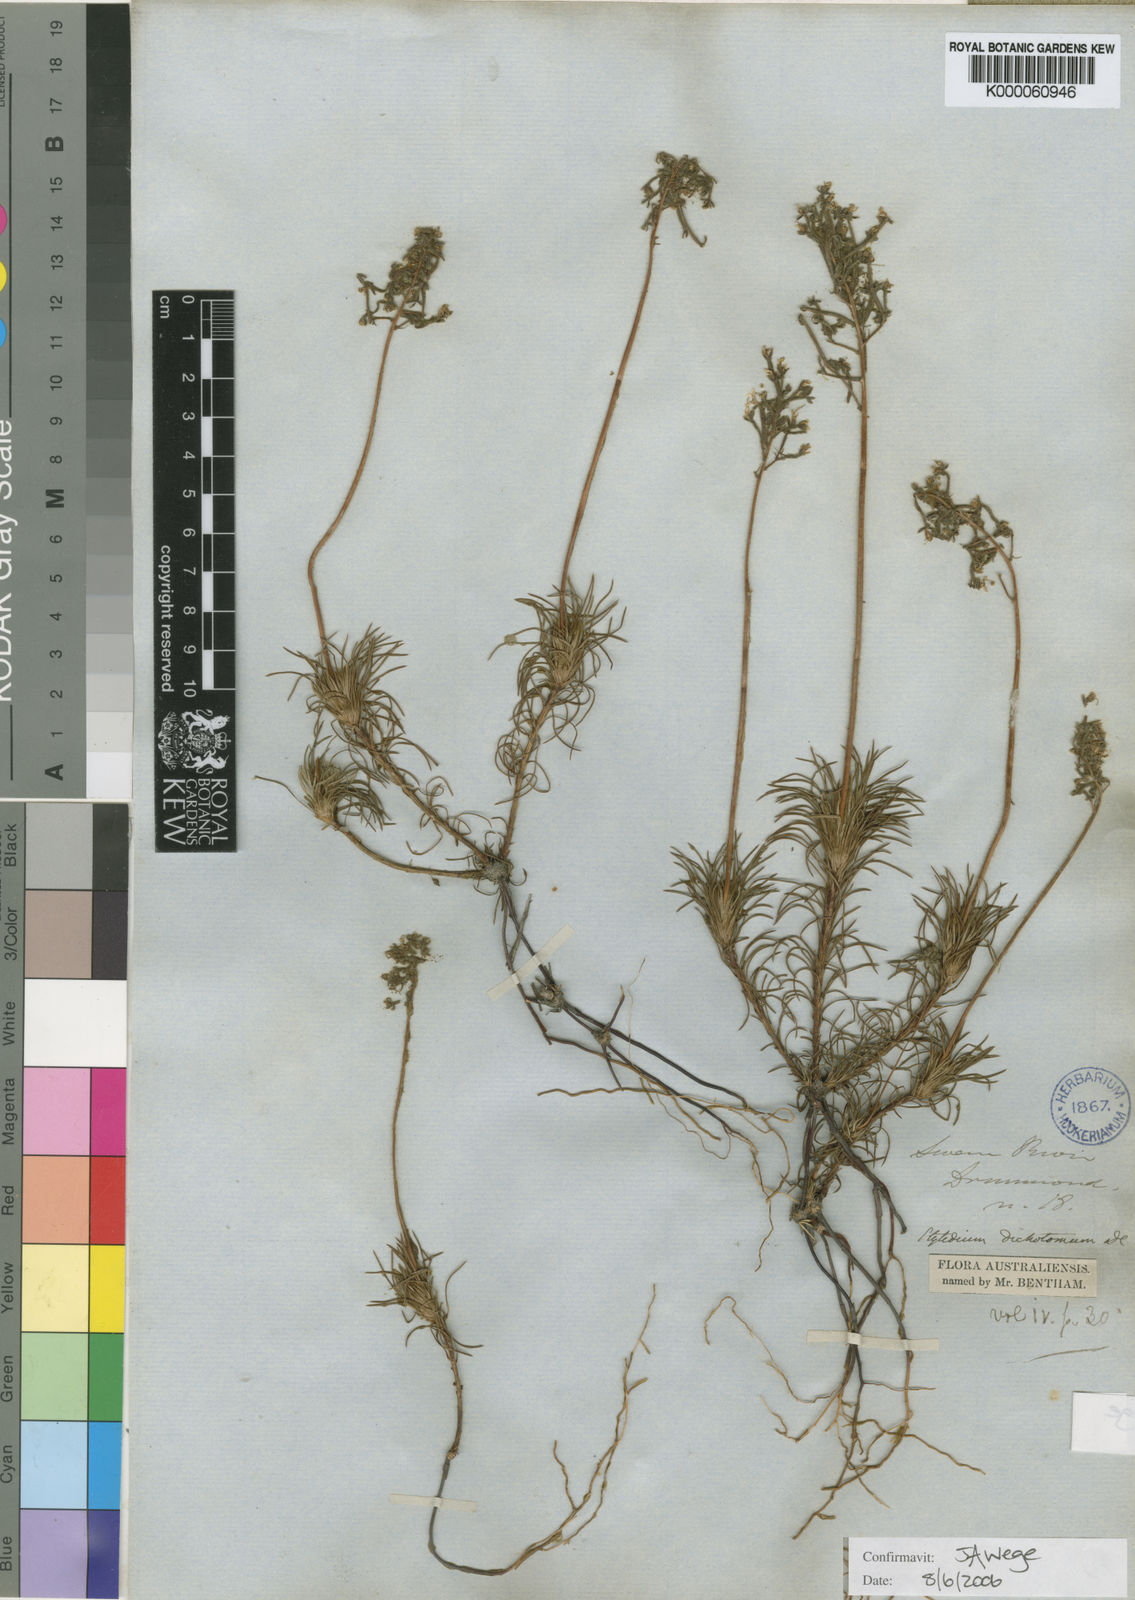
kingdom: Plantae
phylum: Tracheophyta
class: Magnoliopsida
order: Asterales
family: Stylidiaceae
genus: Stylidium
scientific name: Stylidium dichotomum
